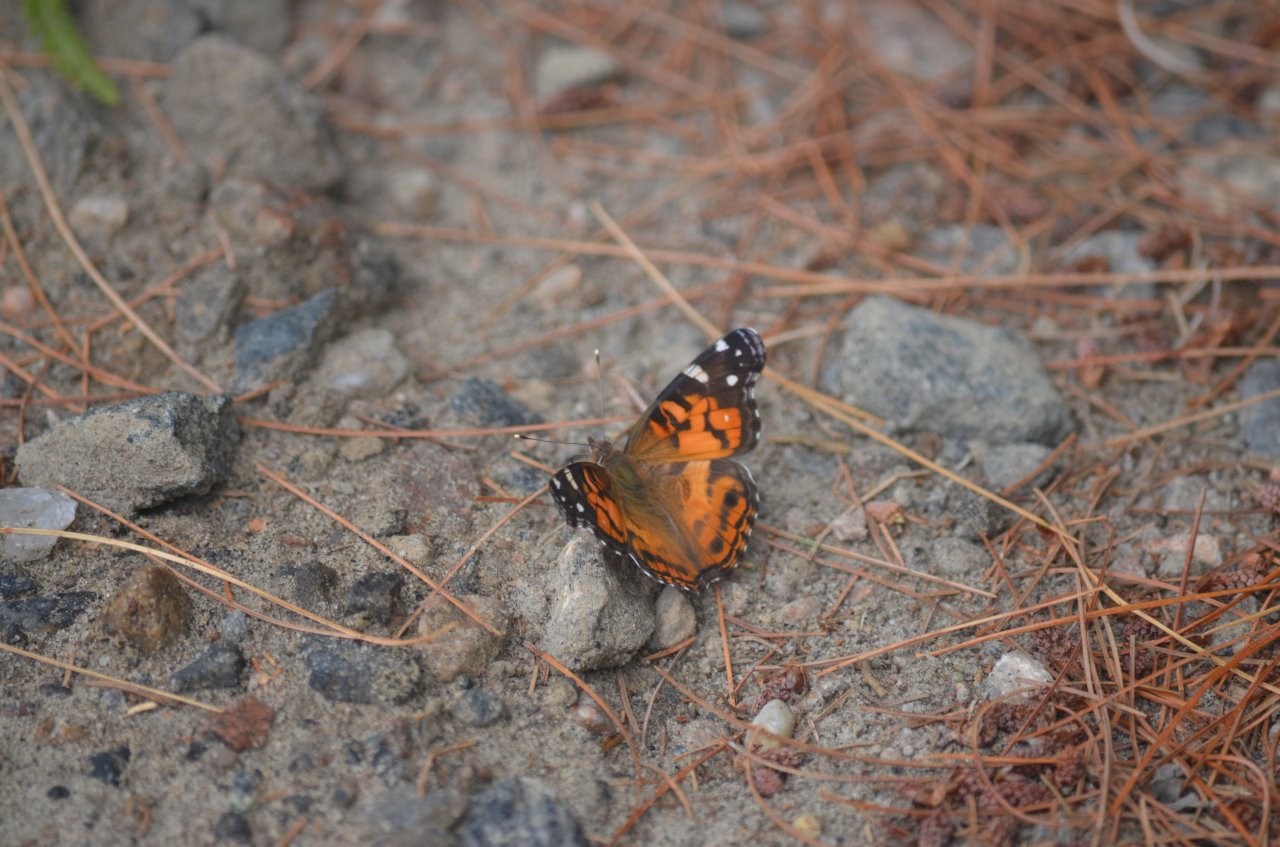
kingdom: Animalia
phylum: Arthropoda
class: Insecta
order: Lepidoptera
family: Nymphalidae
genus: Vanessa
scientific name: Vanessa virginiensis
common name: American Lady
